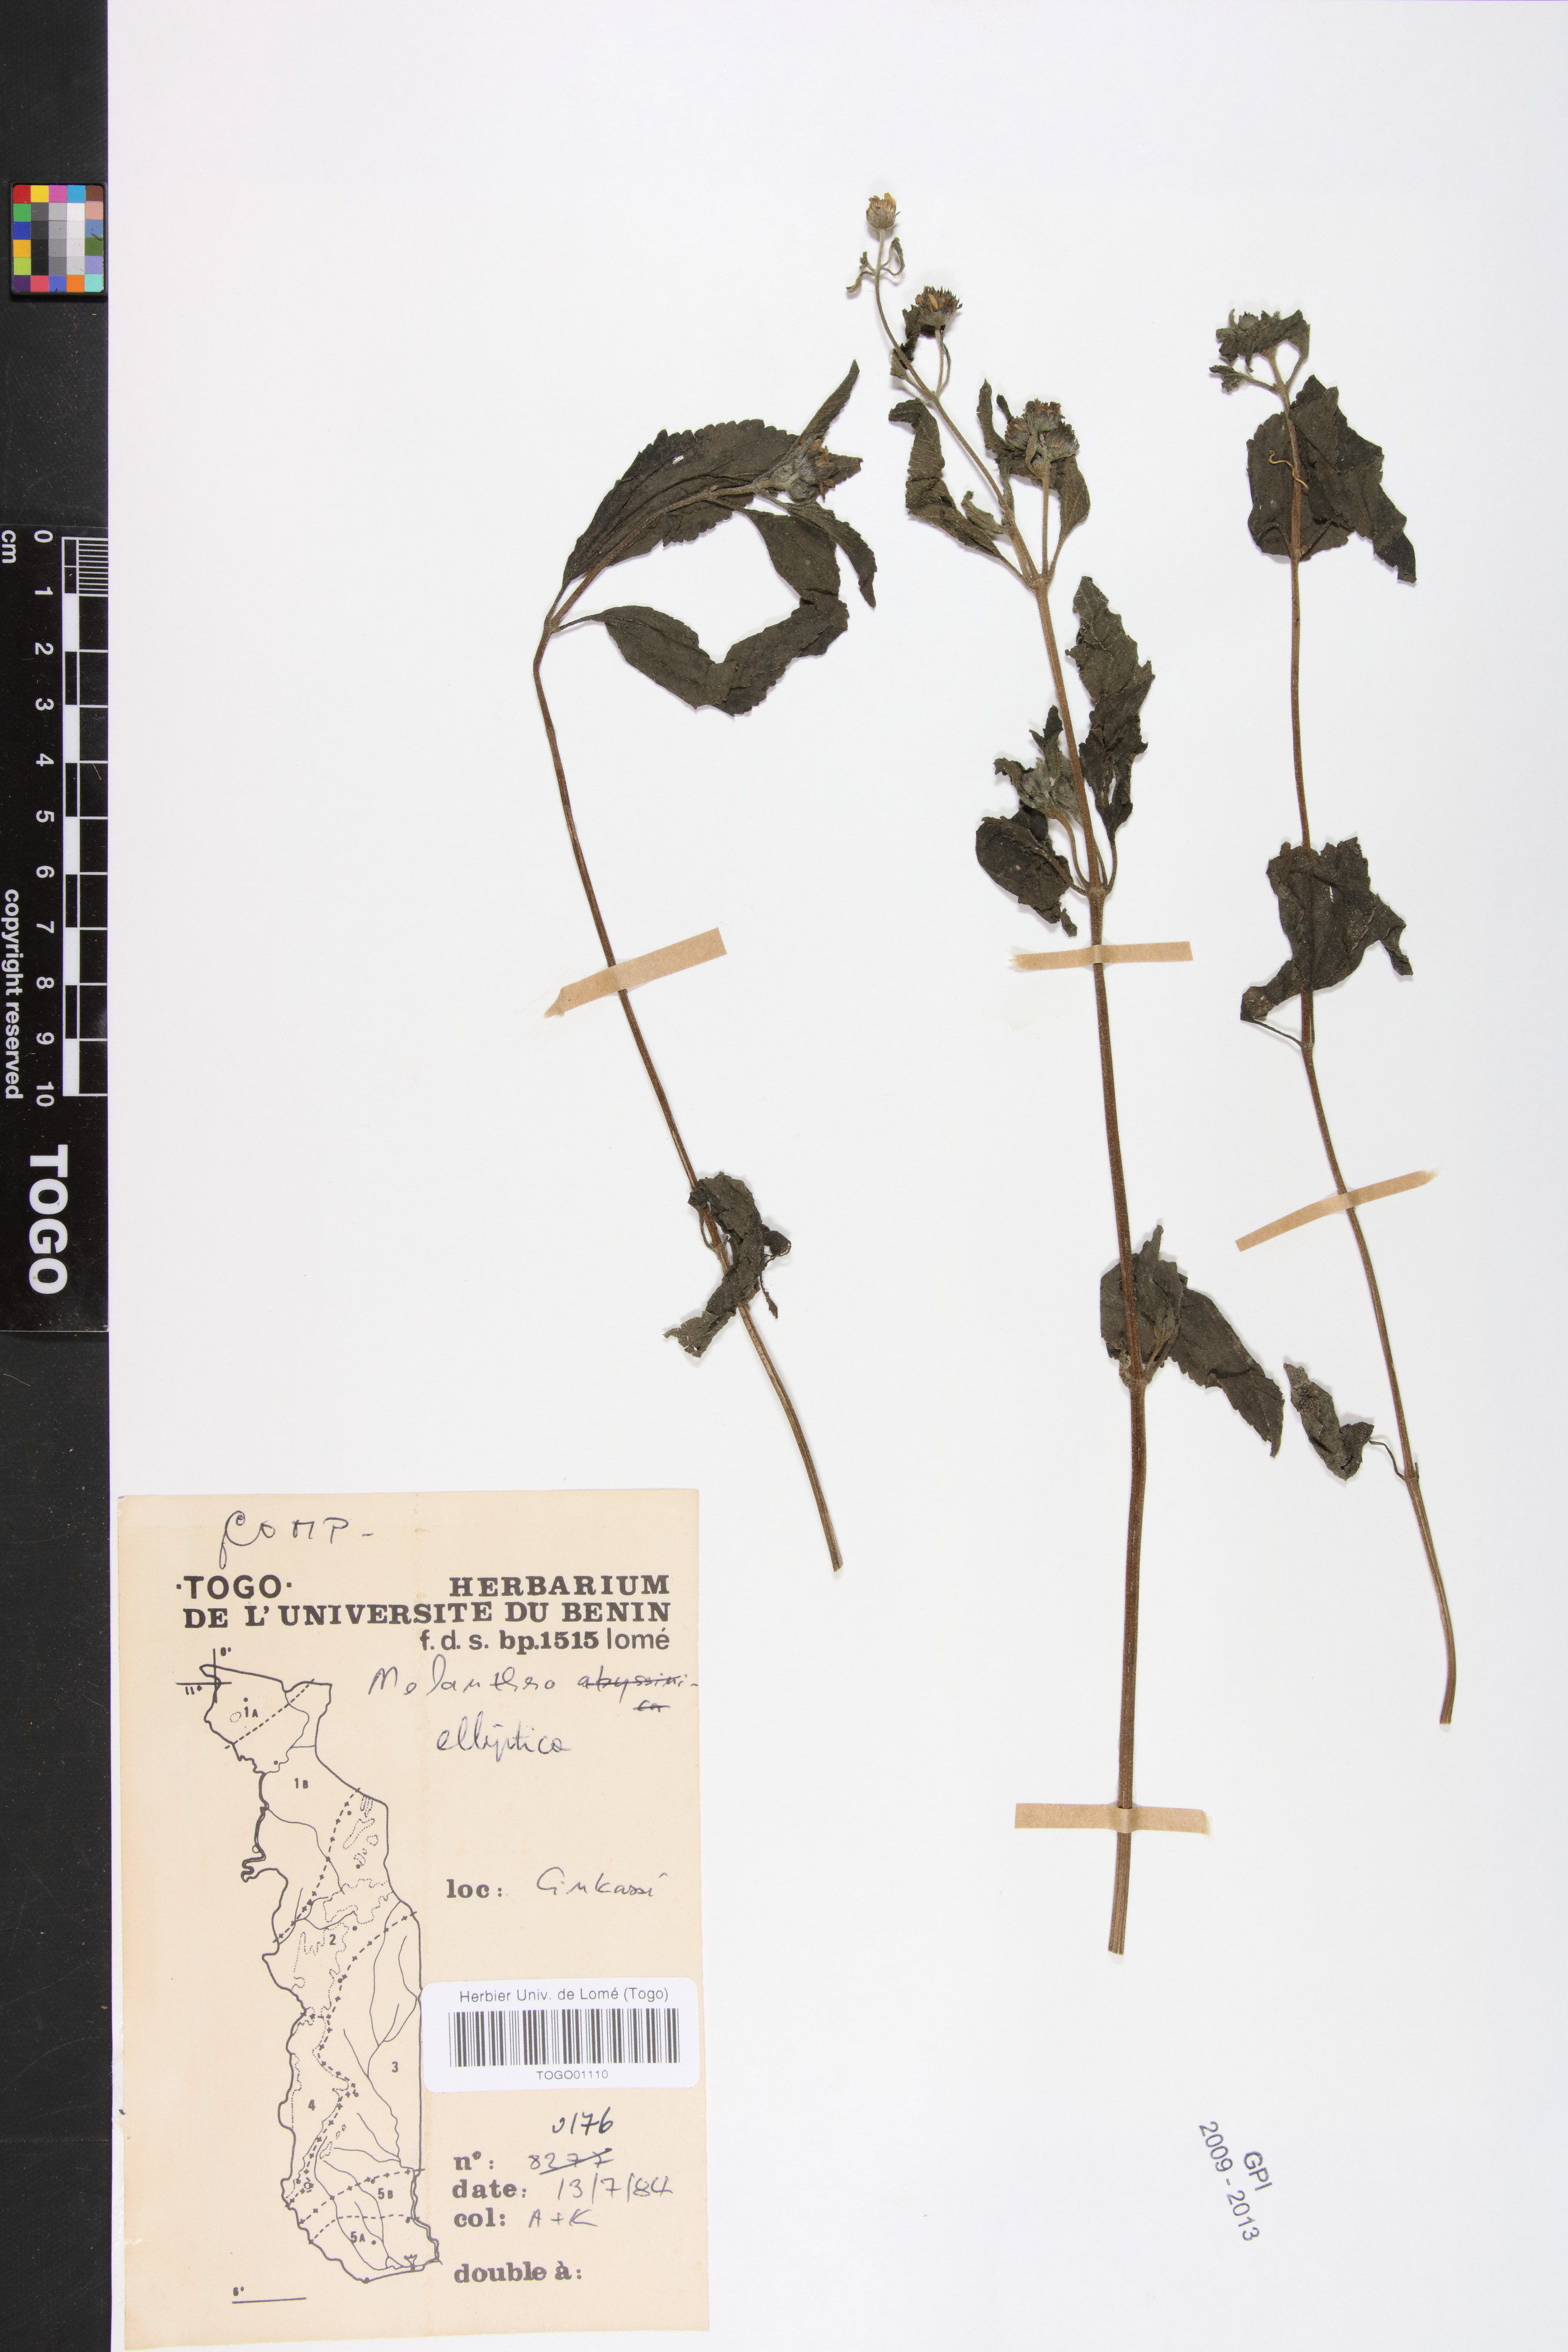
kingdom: Plantae
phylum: Tracheophyta
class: Magnoliopsida
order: Asterales
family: Asteraceae
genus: Lipotriche
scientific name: Lipotriche elliptica
